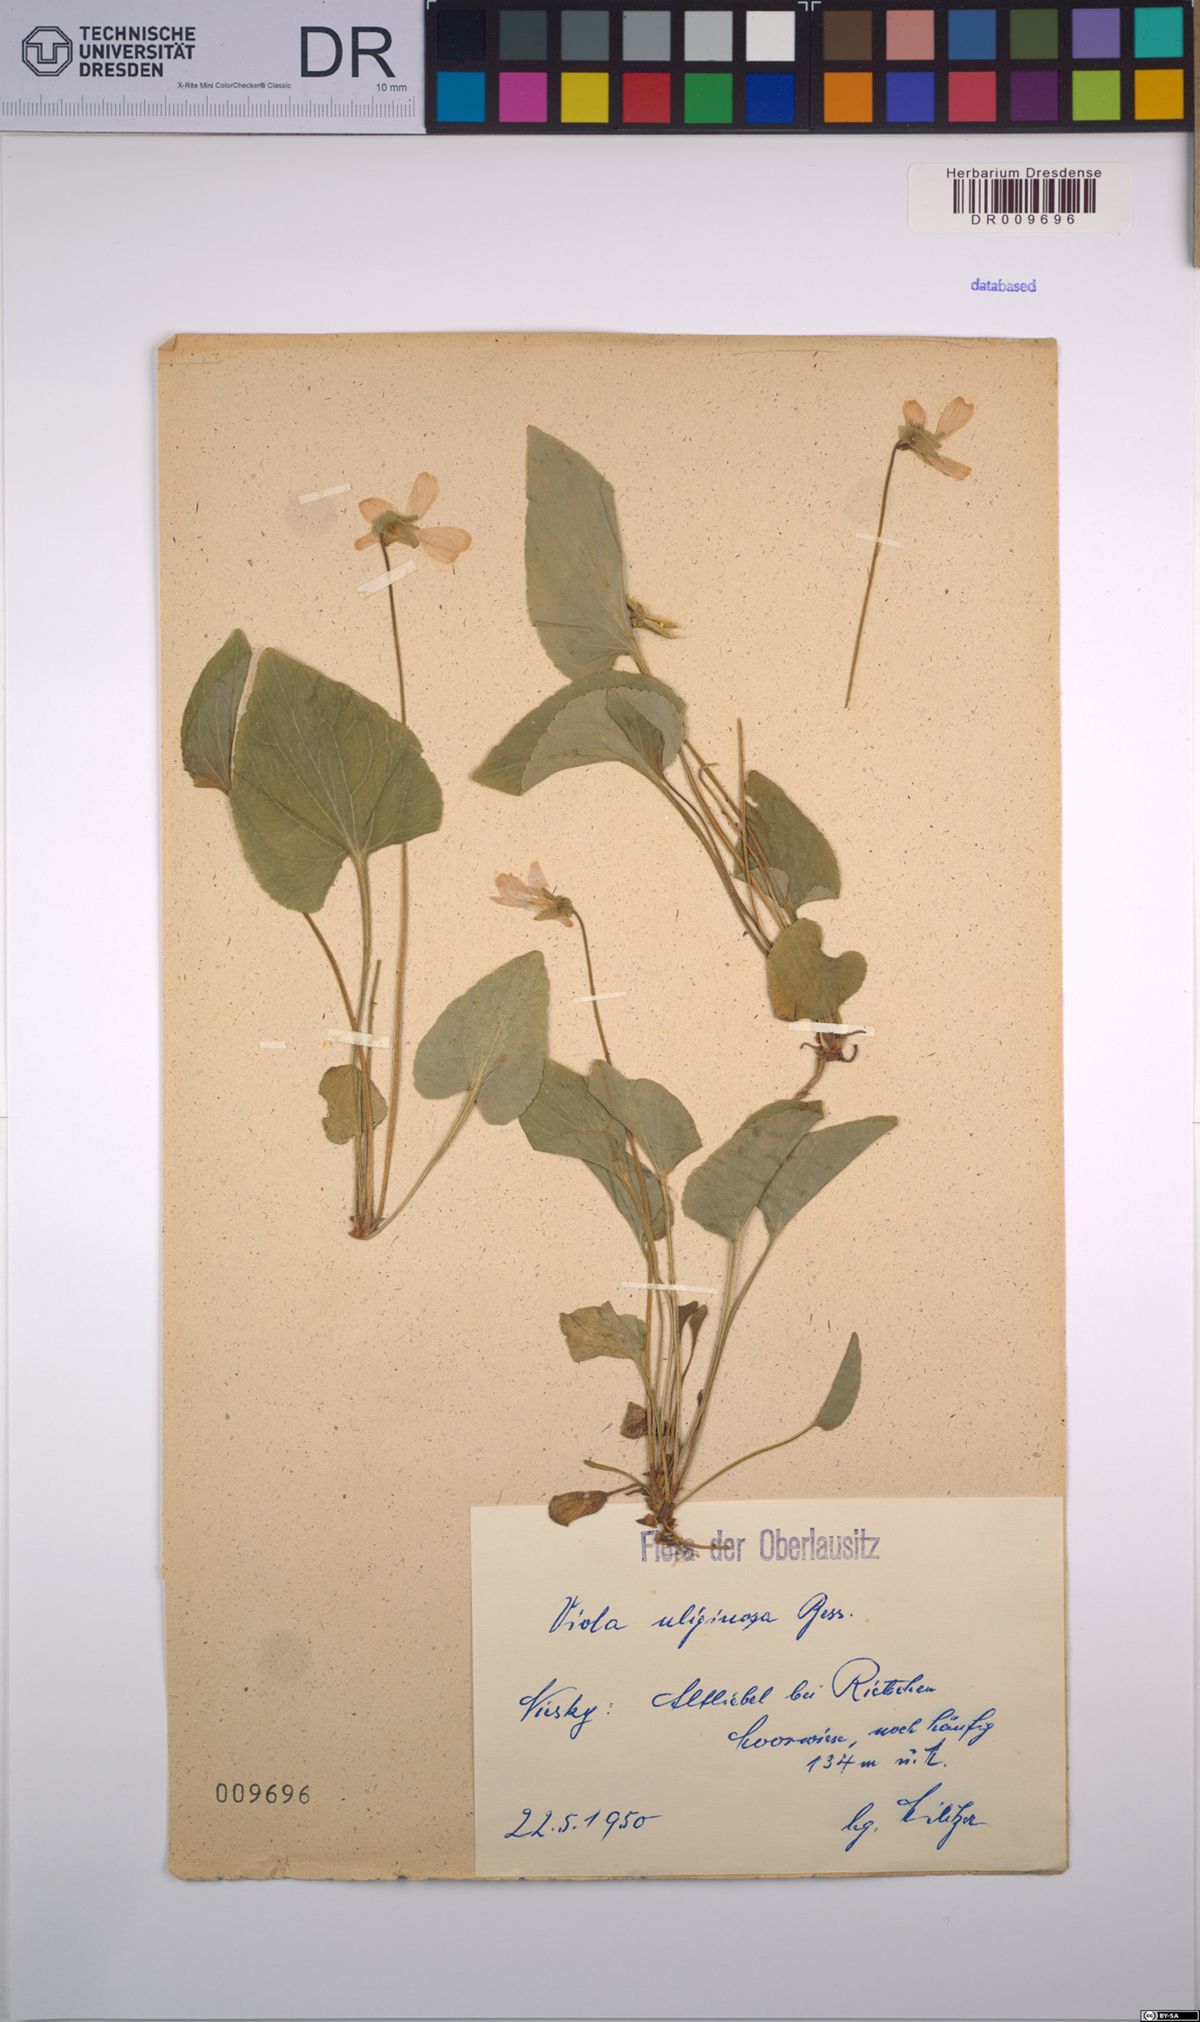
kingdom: Plantae
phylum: Tracheophyta
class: Magnoliopsida
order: Malpighiales
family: Violaceae
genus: Viola
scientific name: Viola uliginosa
